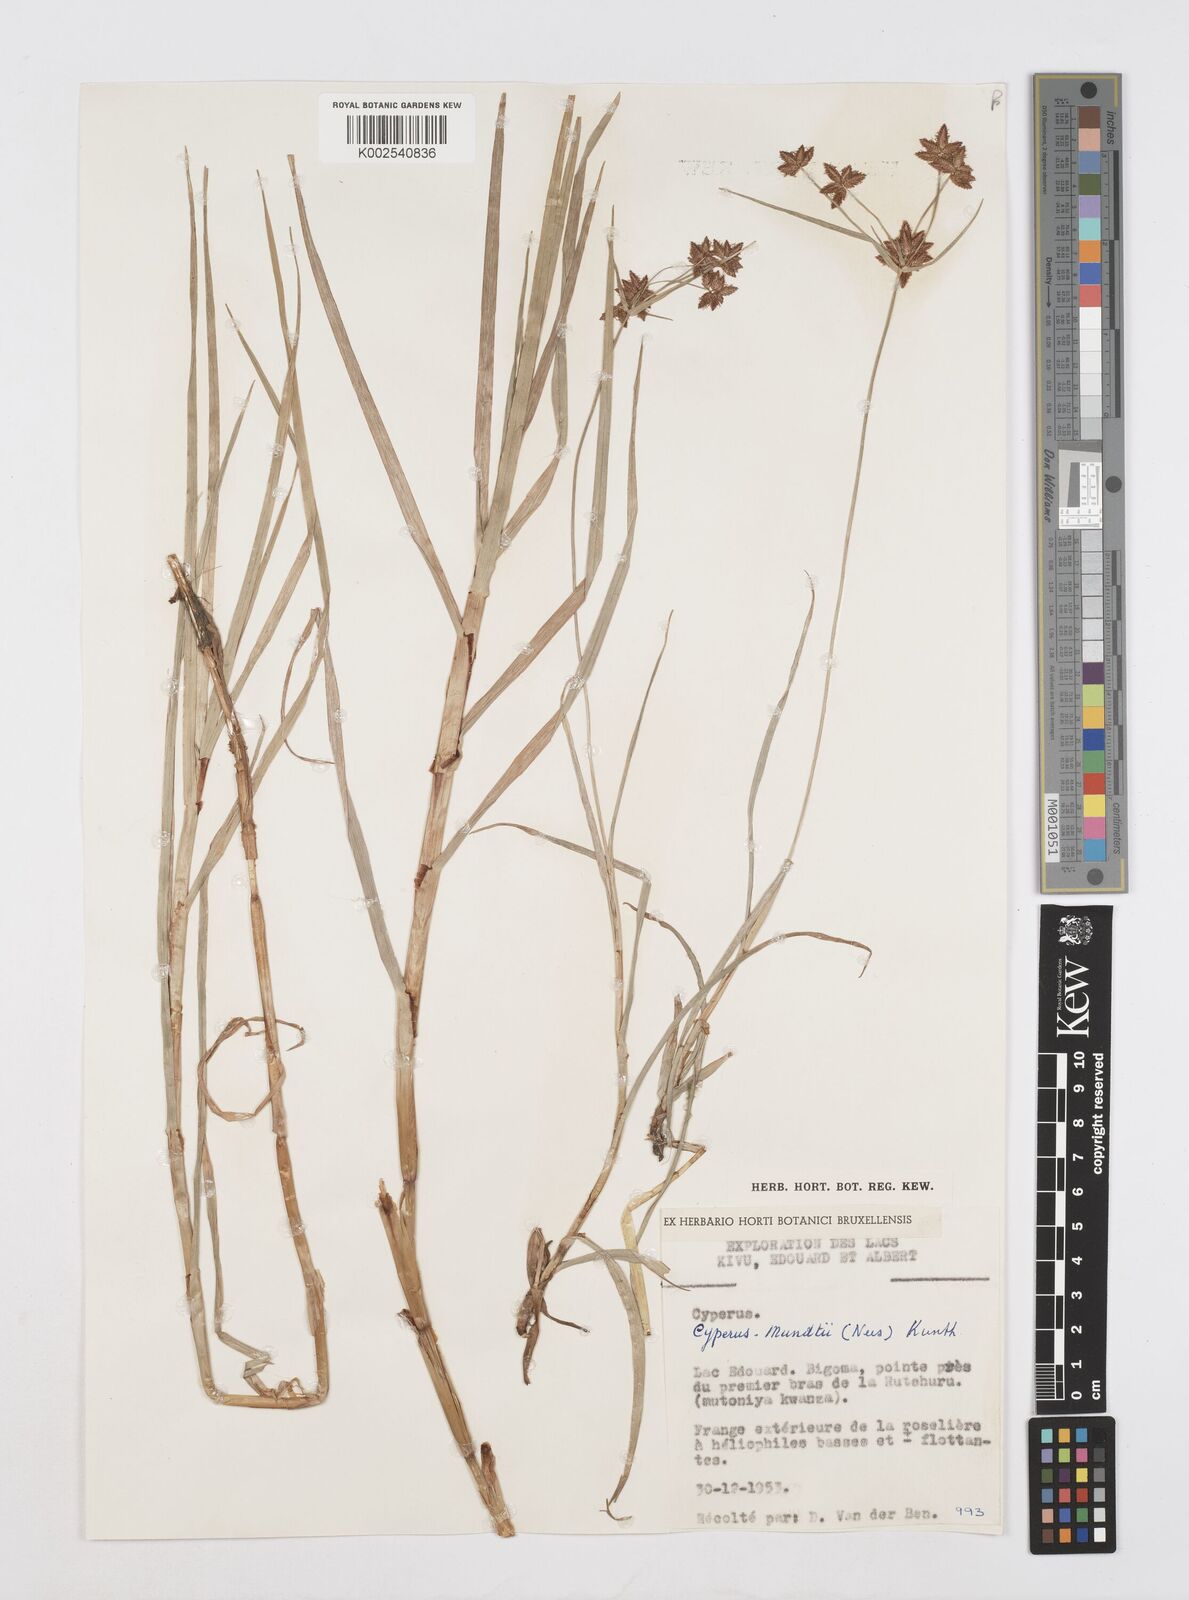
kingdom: Plantae
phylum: Tracheophyta
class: Liliopsida
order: Poales
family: Cyperaceae
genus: Cyperus
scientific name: Cyperus mundii
